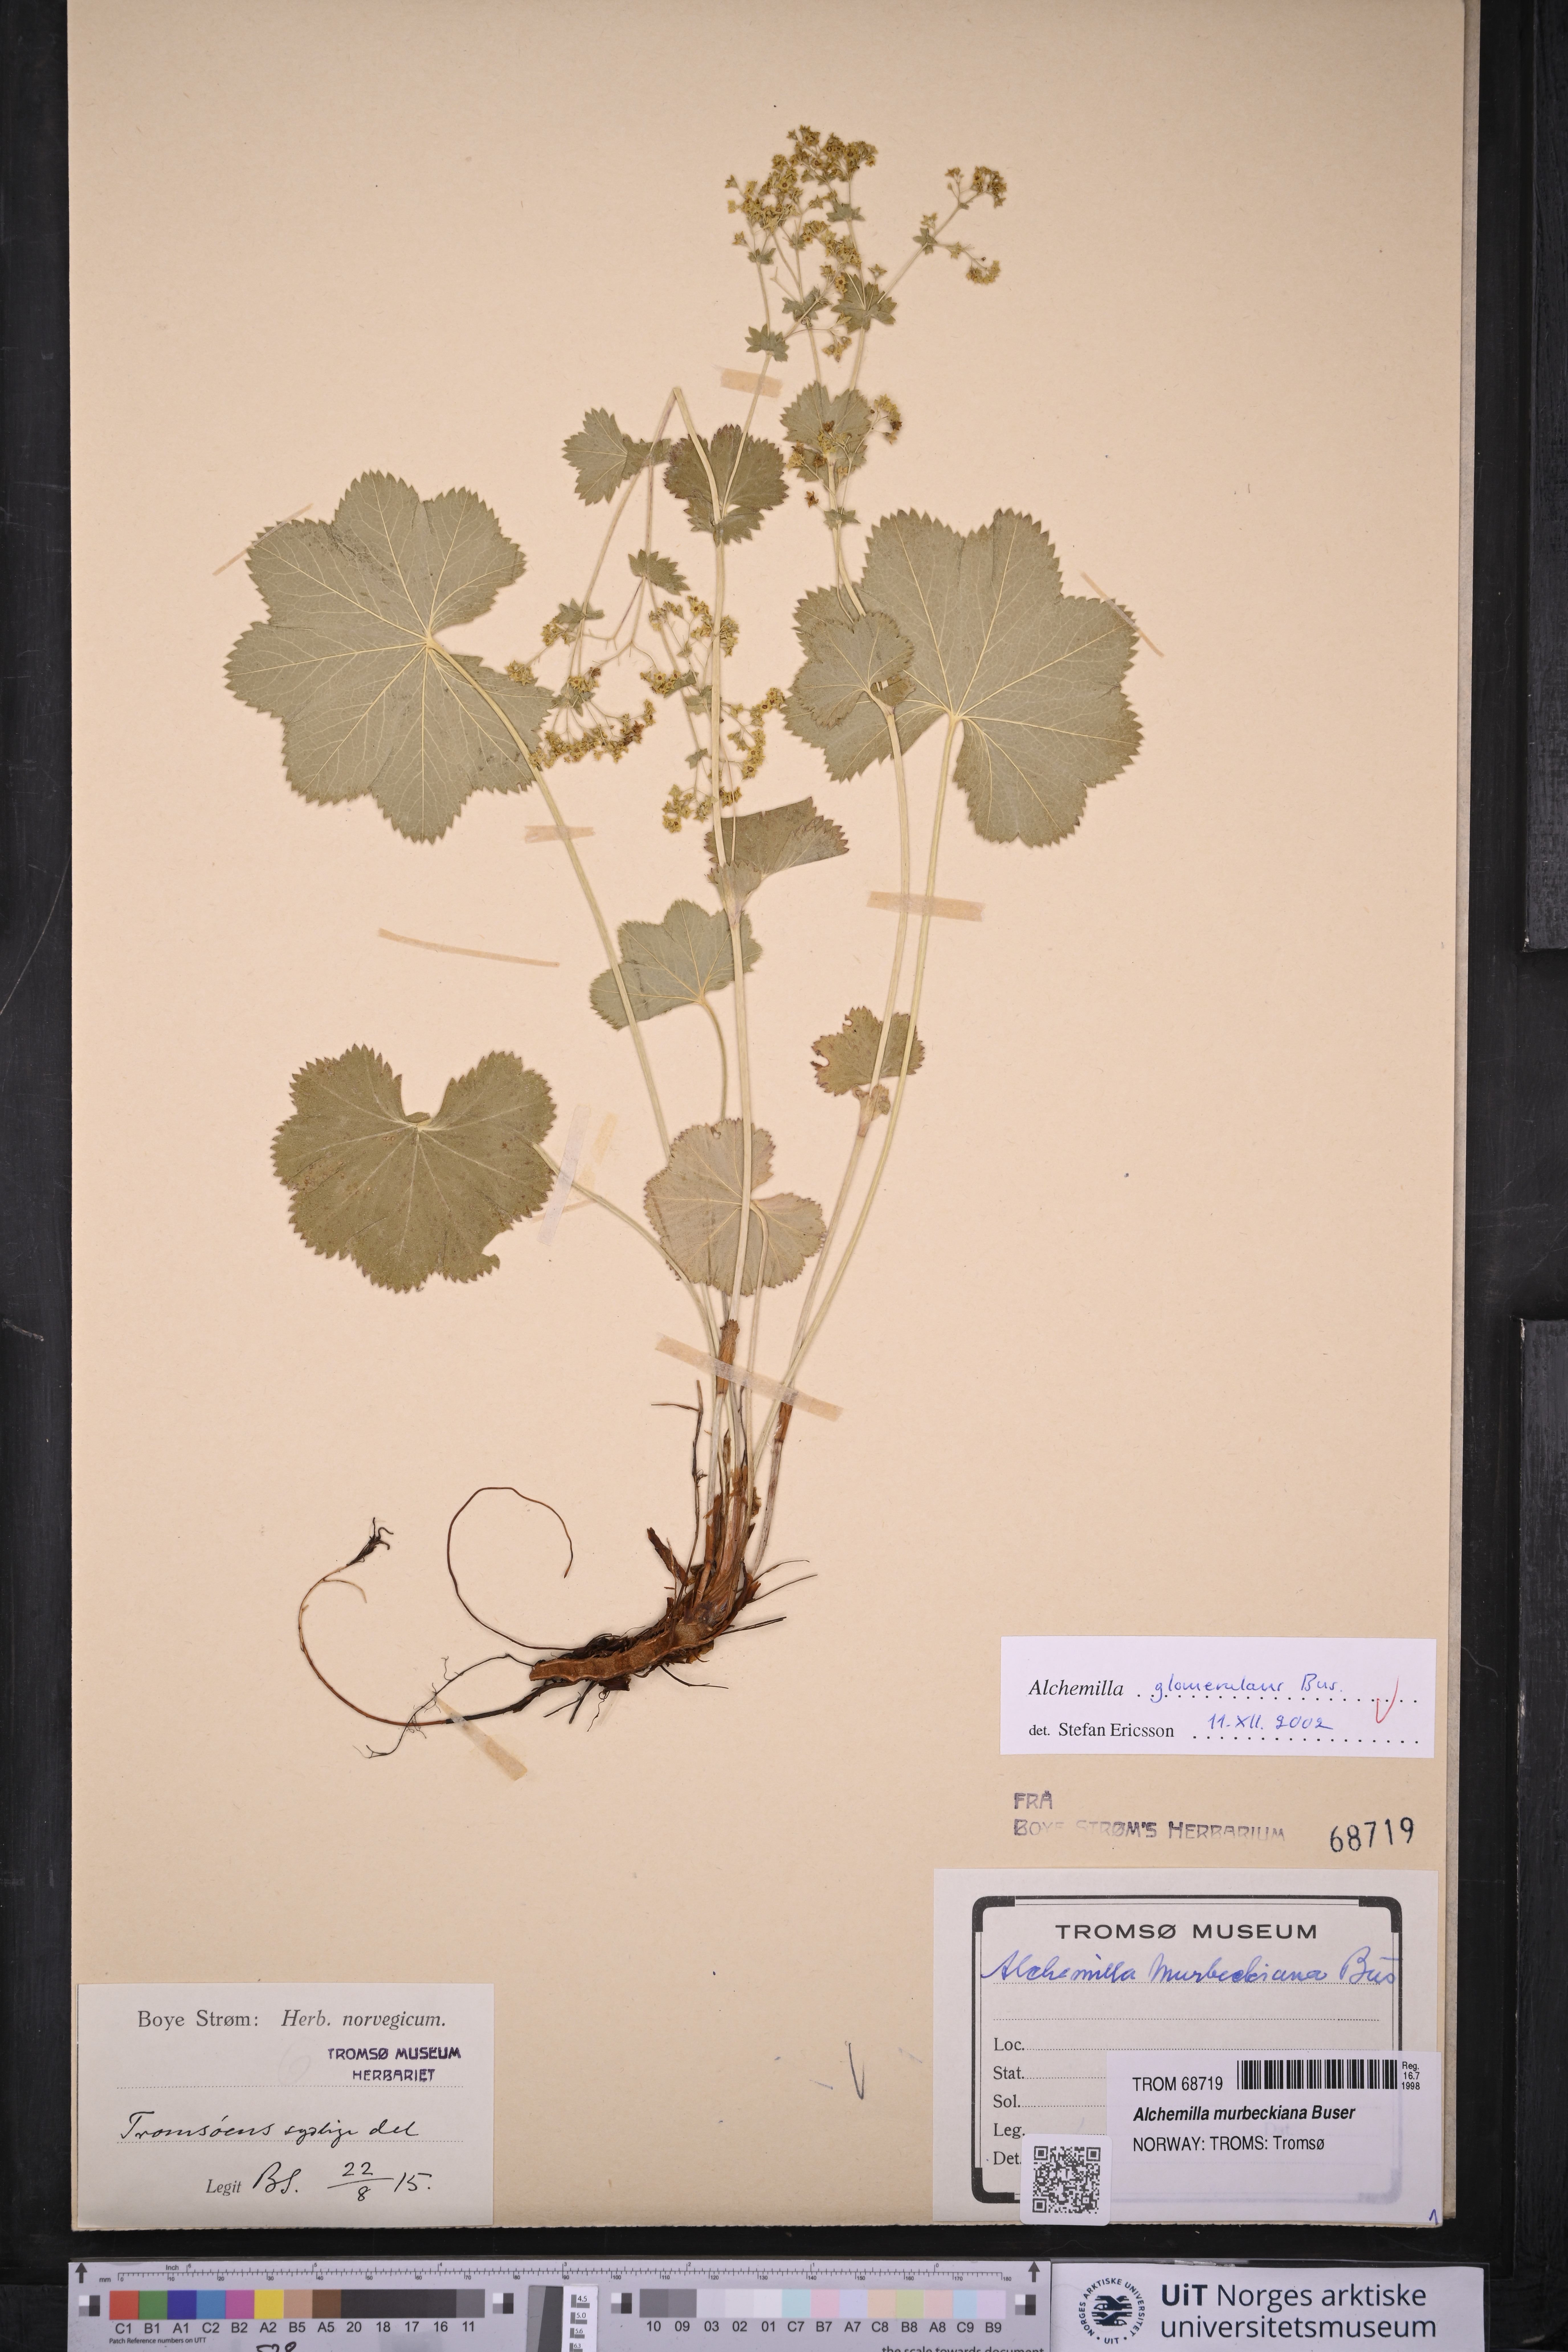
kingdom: Plantae
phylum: Tracheophyta
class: Magnoliopsida
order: Rosales
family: Rosaceae
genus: Alchemilla
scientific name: Alchemilla glomerulans
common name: Clustered lady's mantle
